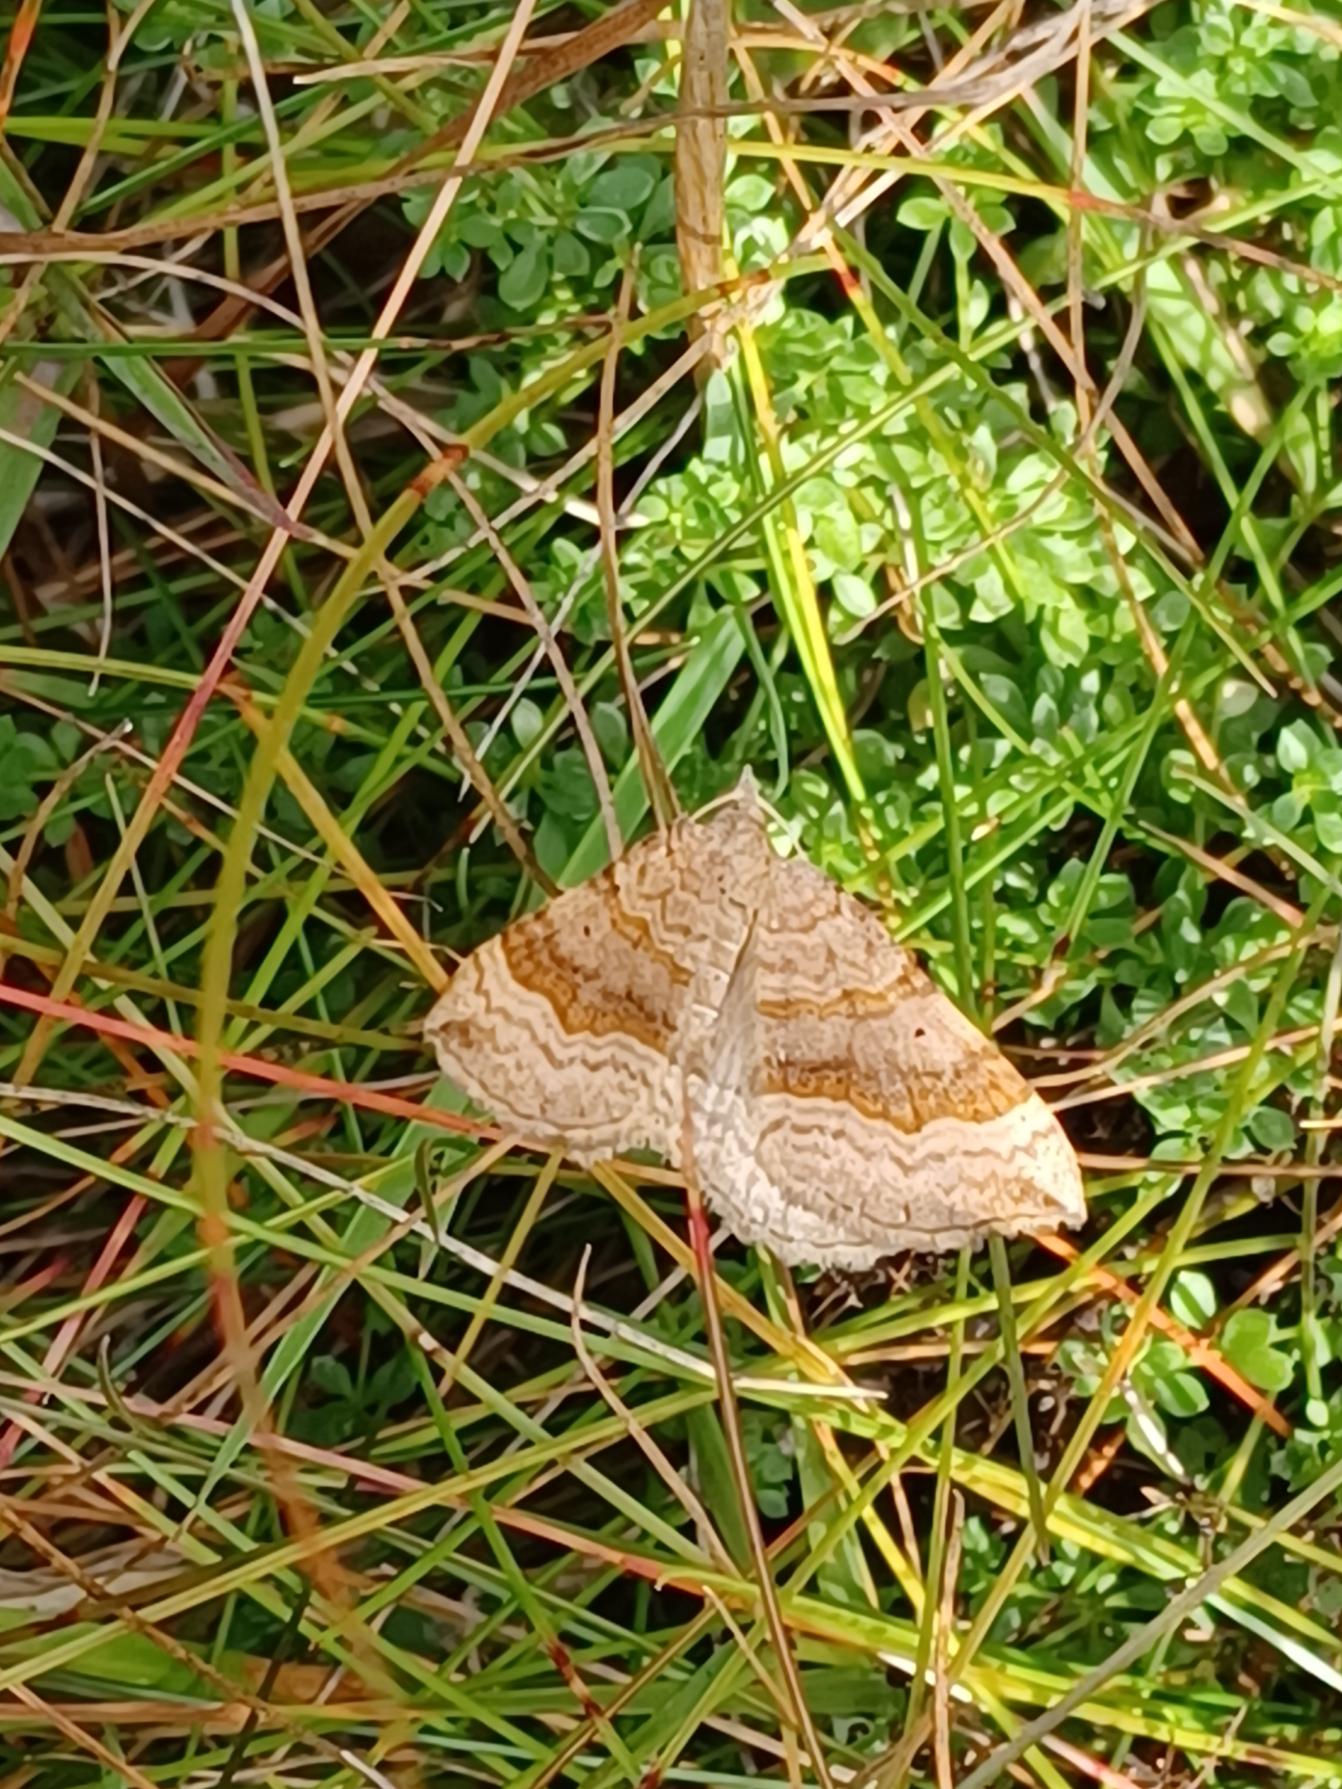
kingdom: Animalia
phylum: Arthropoda
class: Insecta
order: Lepidoptera
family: Geometridae
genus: Scotopteryx
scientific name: Scotopteryx chenopodiata
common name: Almindelig spidsvingemåler
